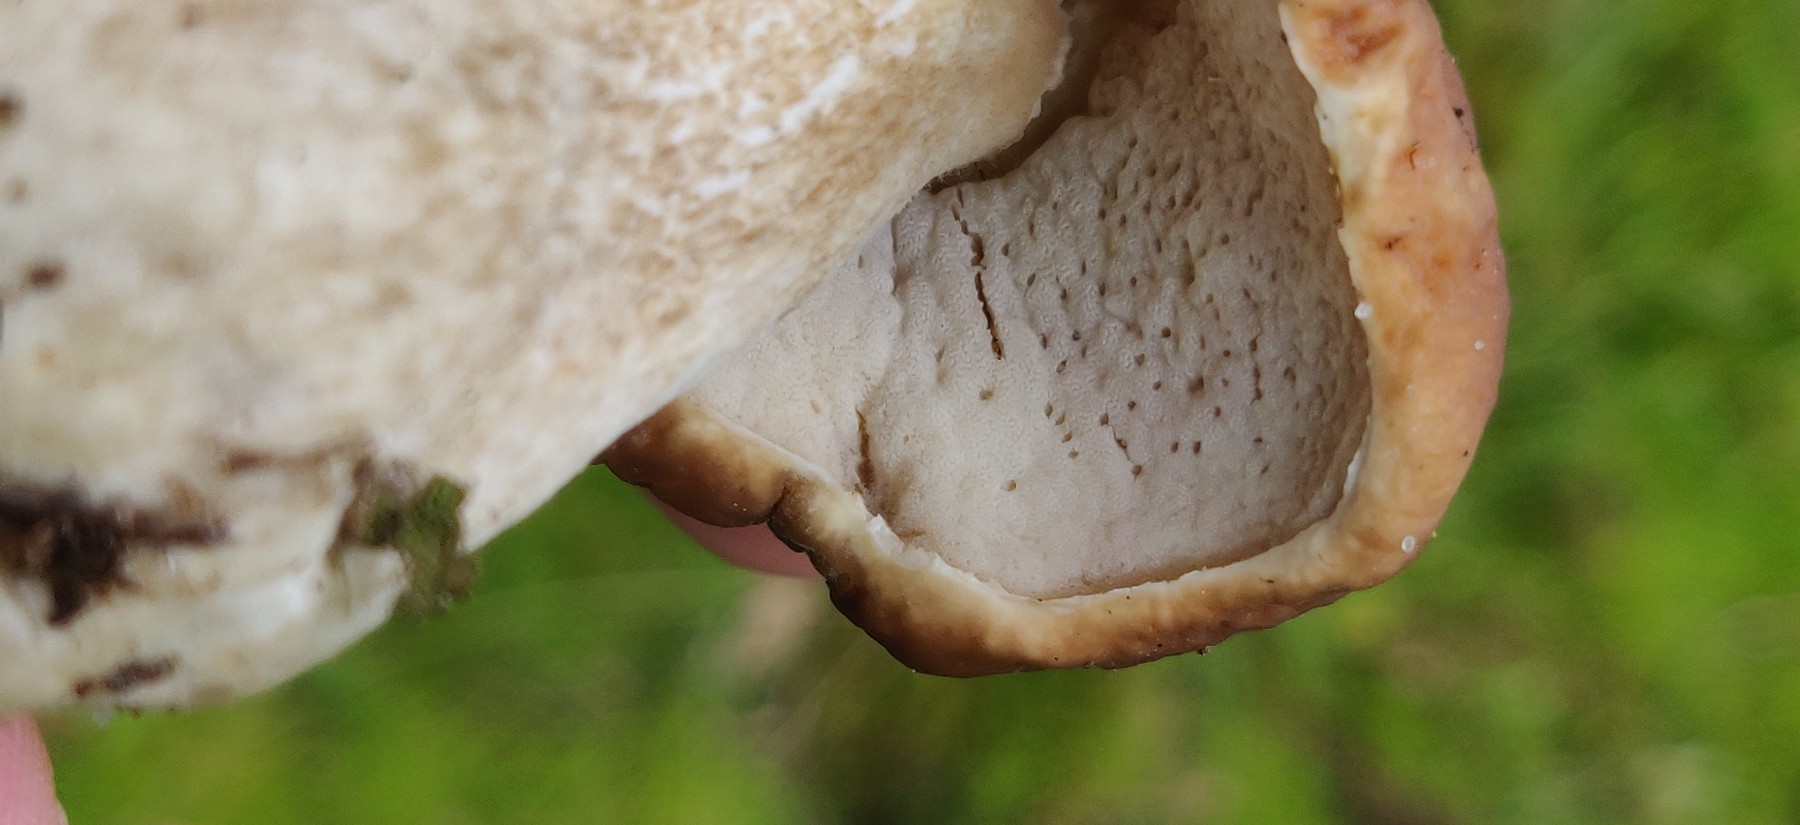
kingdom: Fungi
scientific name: Fungi
